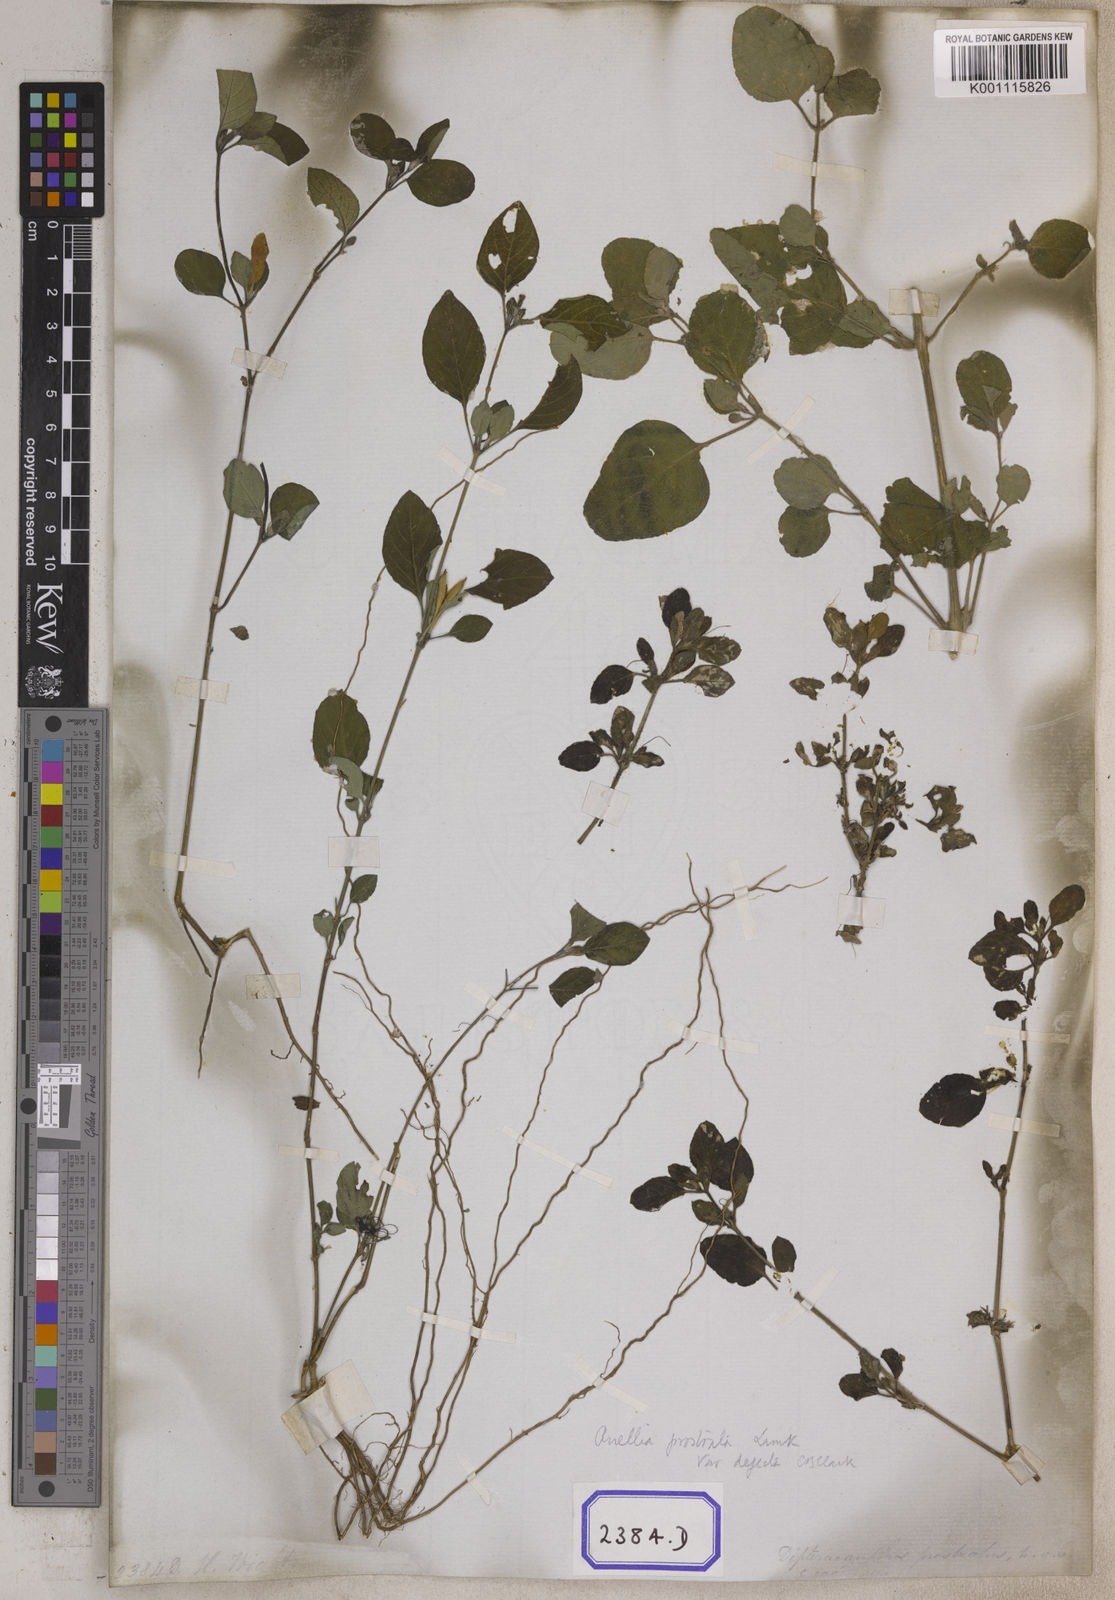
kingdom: Plantae
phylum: Tracheophyta
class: Magnoliopsida
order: Lamiales
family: Acanthaceae
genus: Ruellia
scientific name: Ruellia prostrata
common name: Prostrate wild petunia
